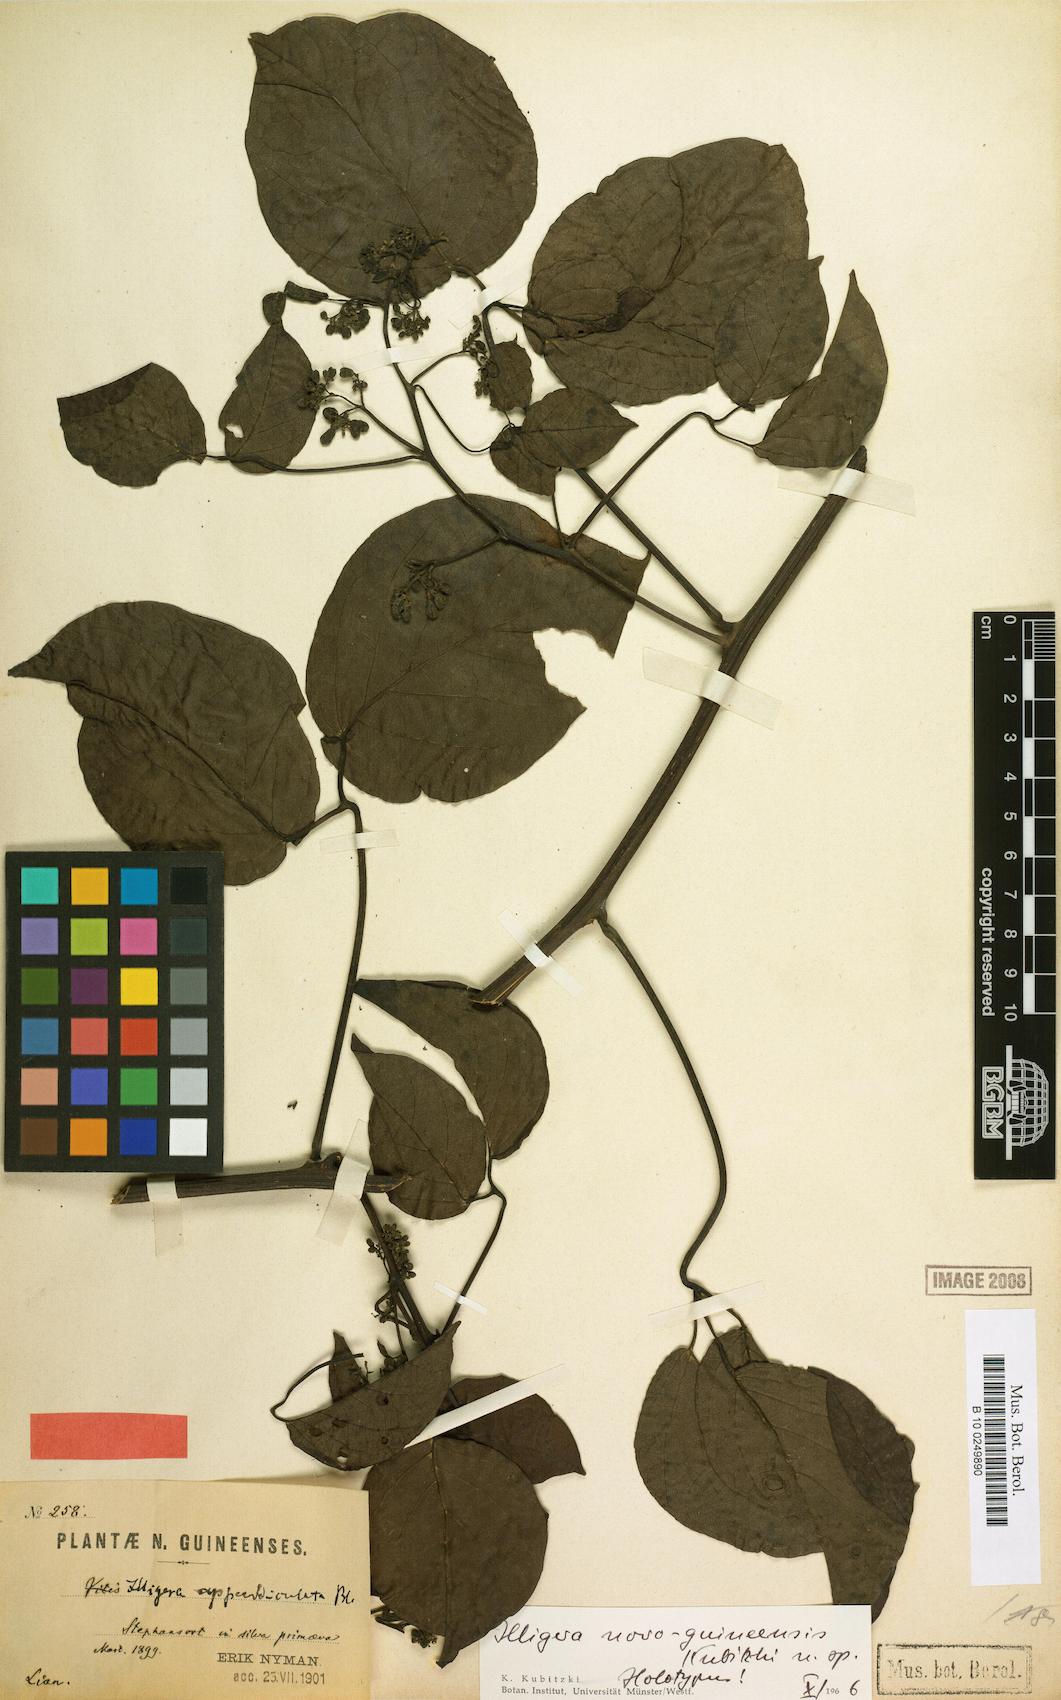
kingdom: Plantae
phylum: Tracheophyta
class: Magnoliopsida
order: Laurales
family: Hernandiaceae
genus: Illigera
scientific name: Illigera novoguieensis
